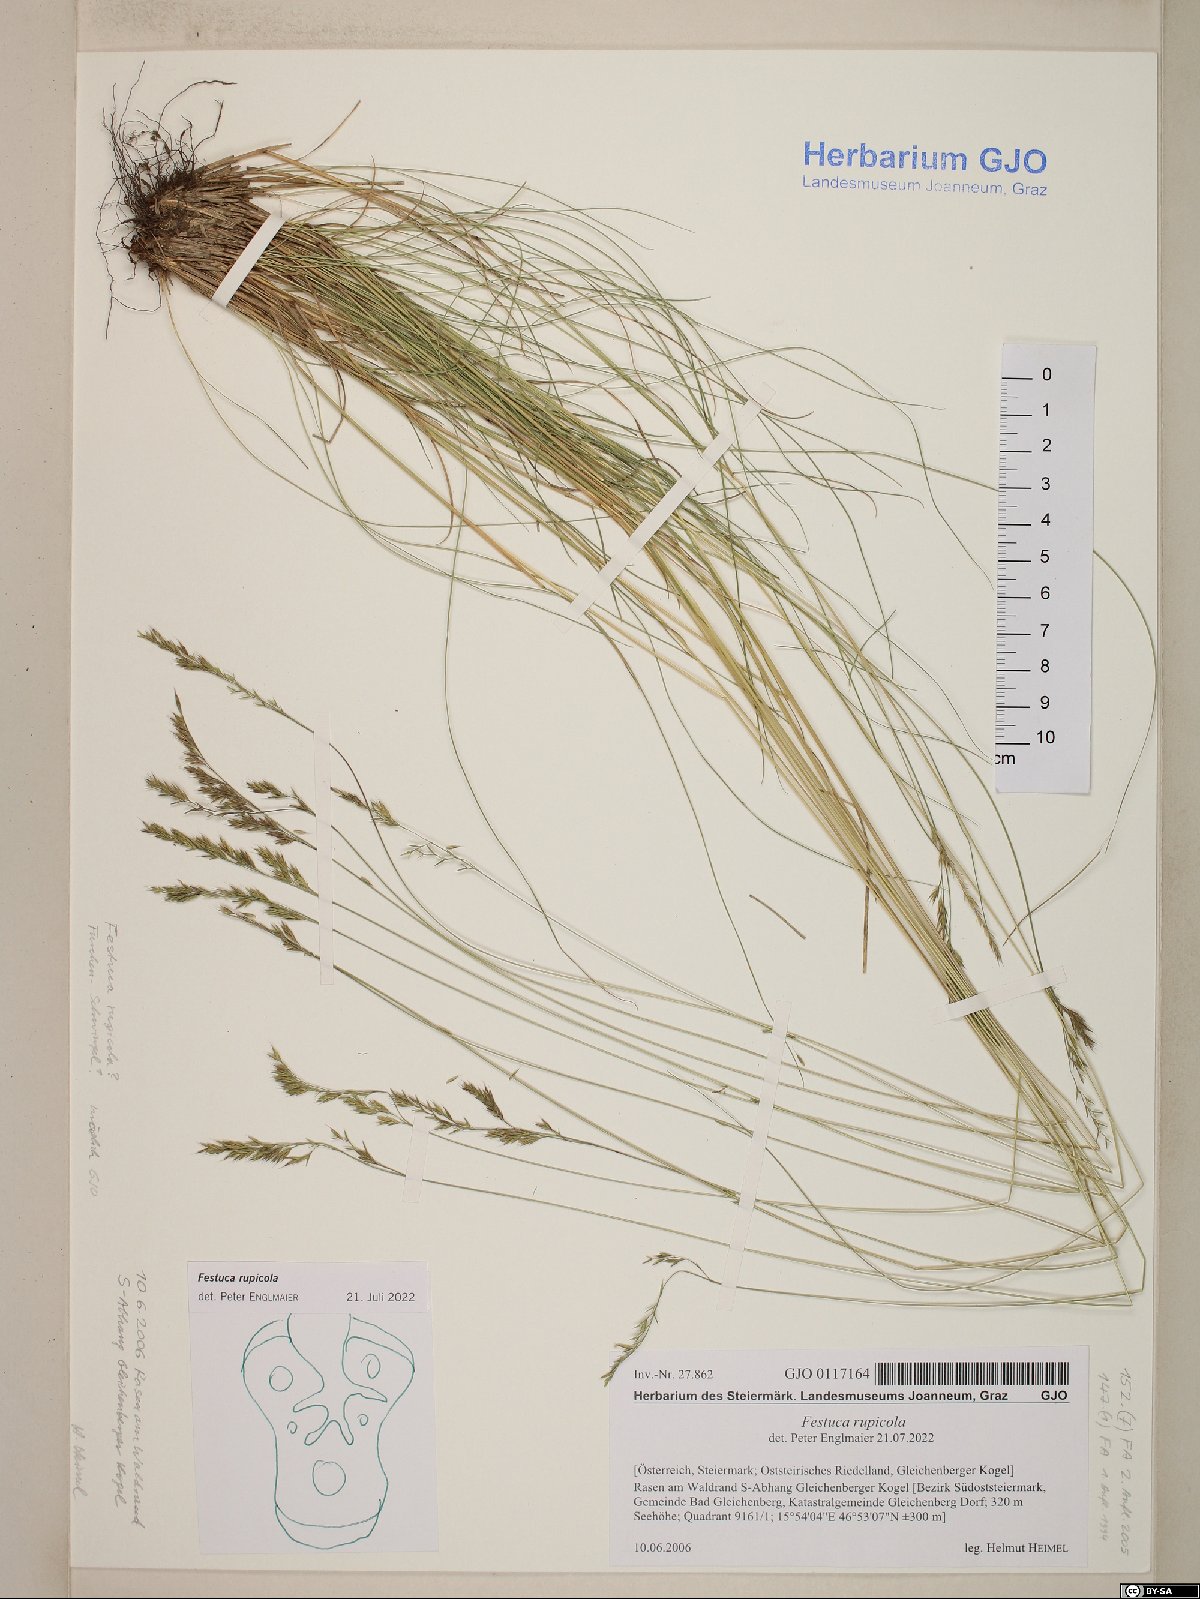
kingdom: Plantae
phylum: Tracheophyta
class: Liliopsida
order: Poales
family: Poaceae
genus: Festuca
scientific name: Festuca rupicola
